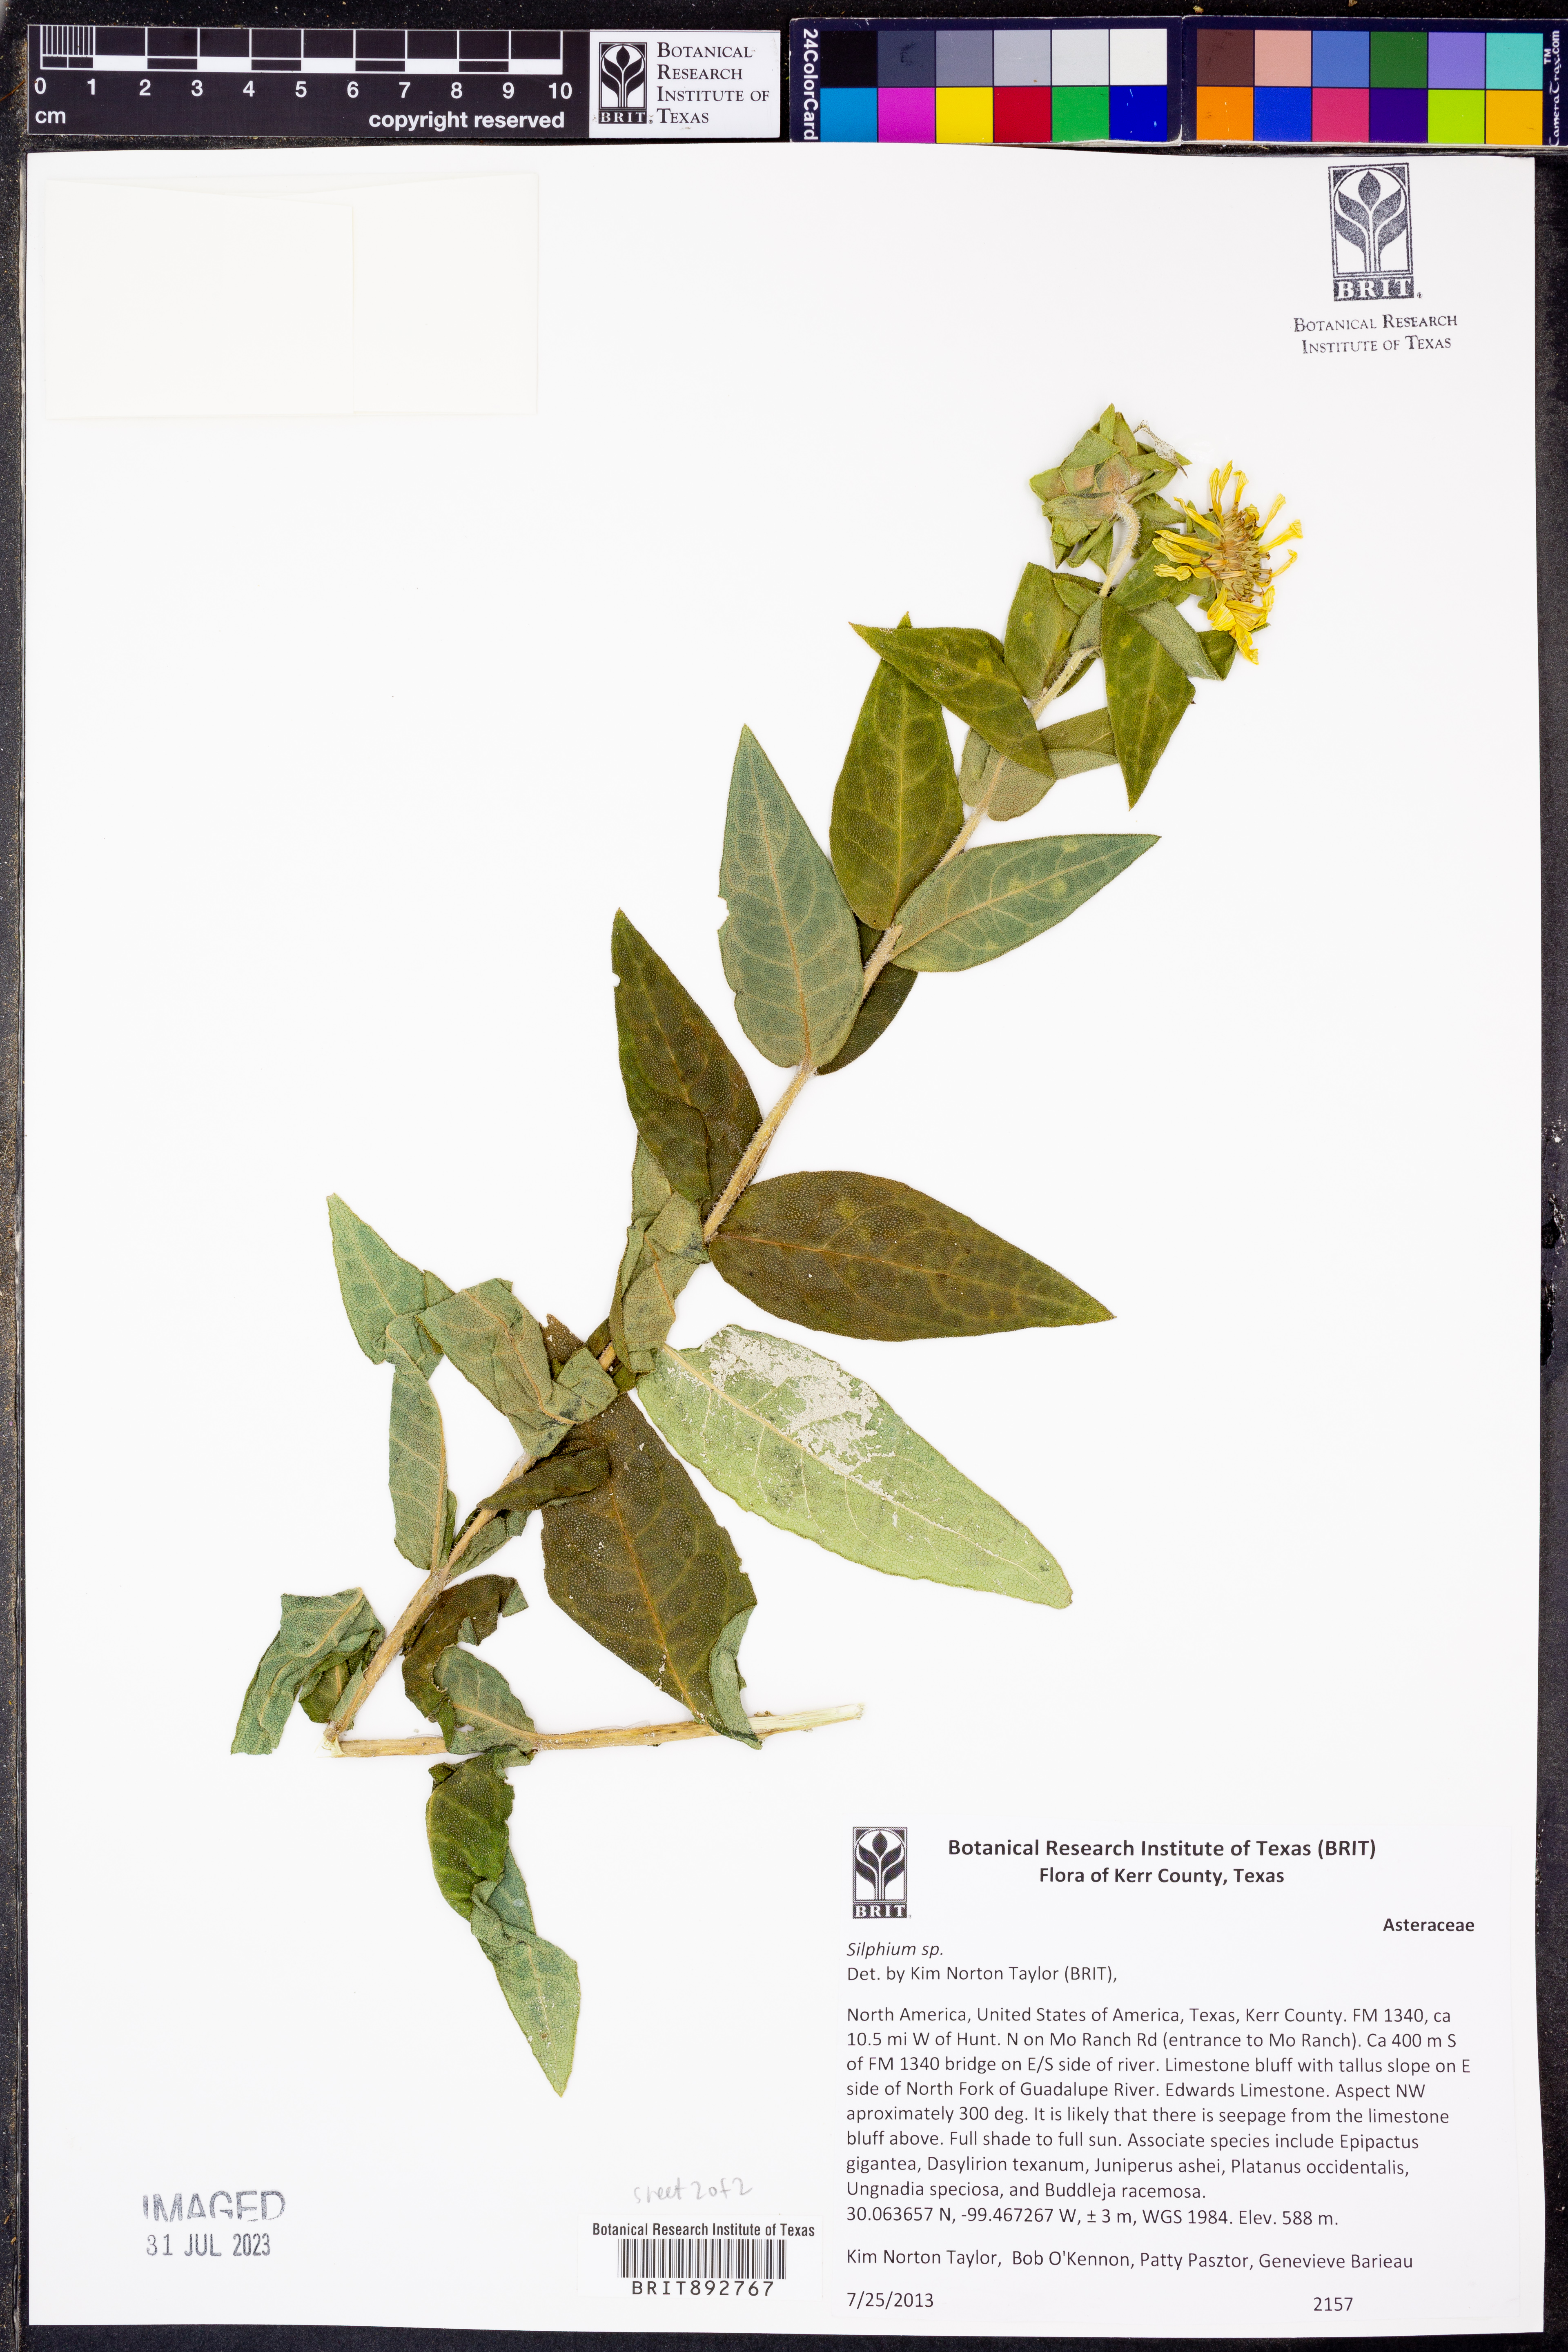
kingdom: Plantae
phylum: Tracheophyta
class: Magnoliopsida
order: Asterales
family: Asteraceae
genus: Silphium
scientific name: Silphium
